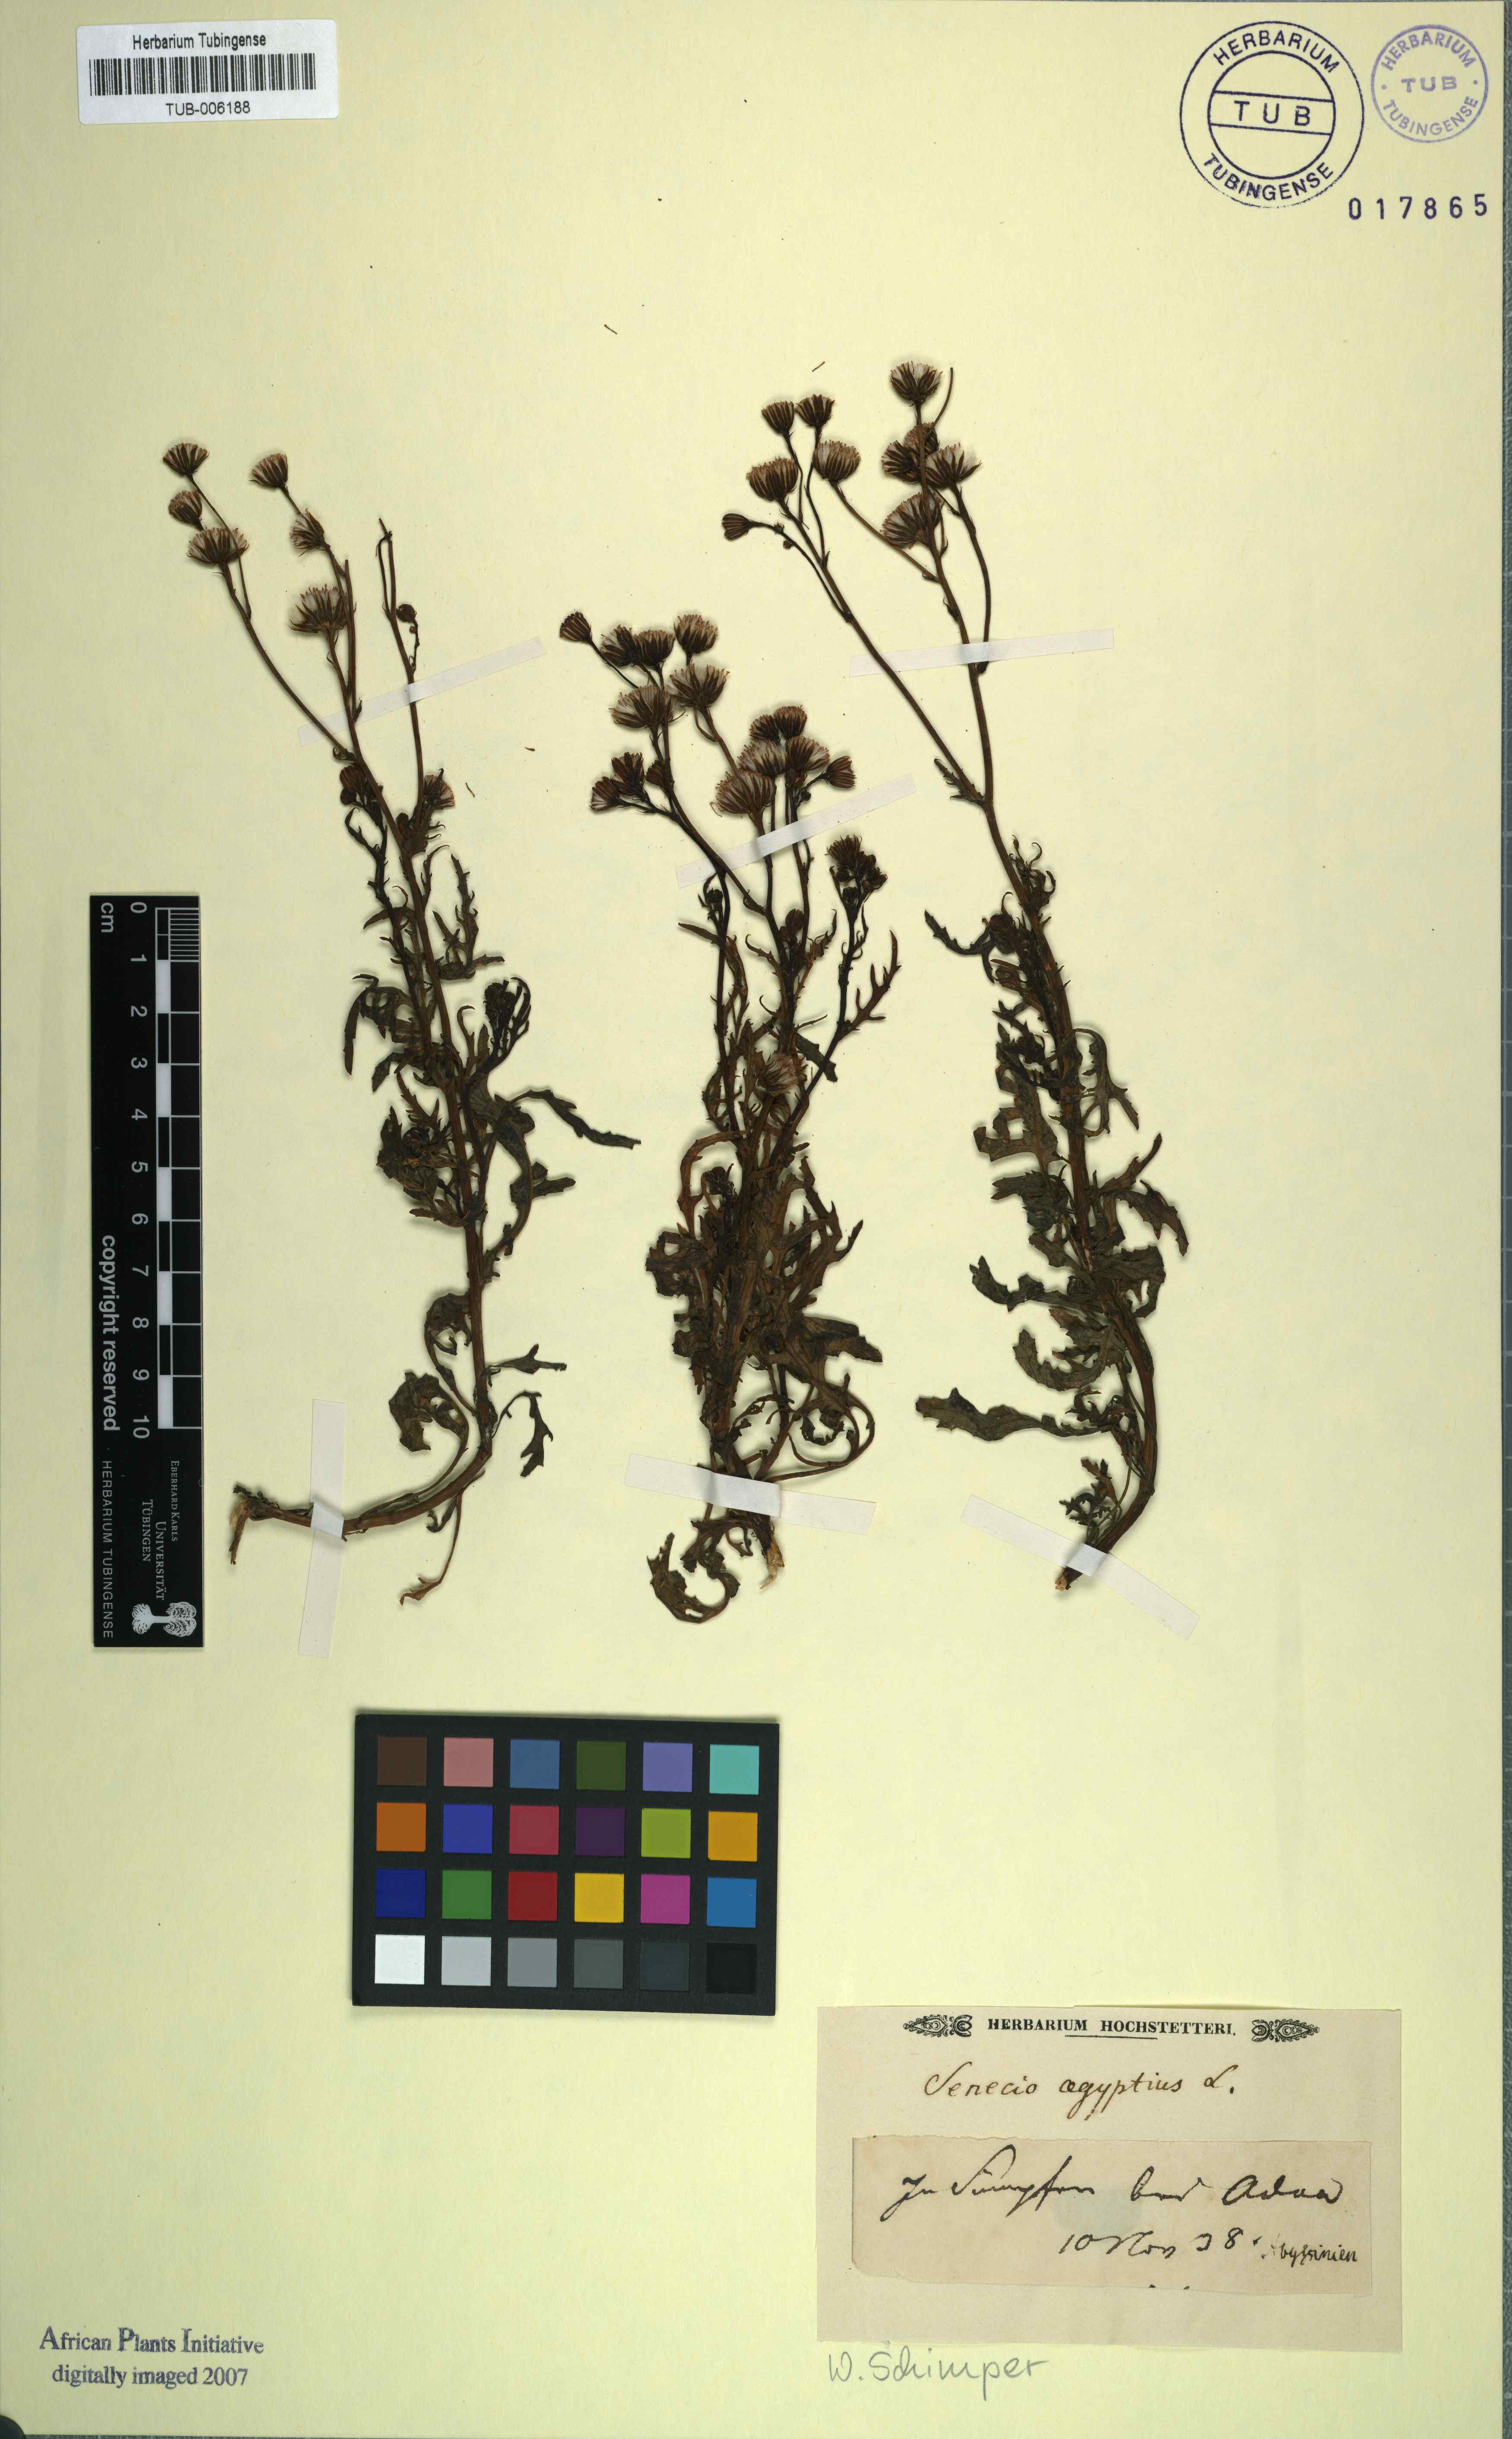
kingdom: Plantae
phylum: Tracheophyta
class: Magnoliopsida
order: Asterales
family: Asteraceae
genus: Senecio
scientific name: Senecio aegyptius
